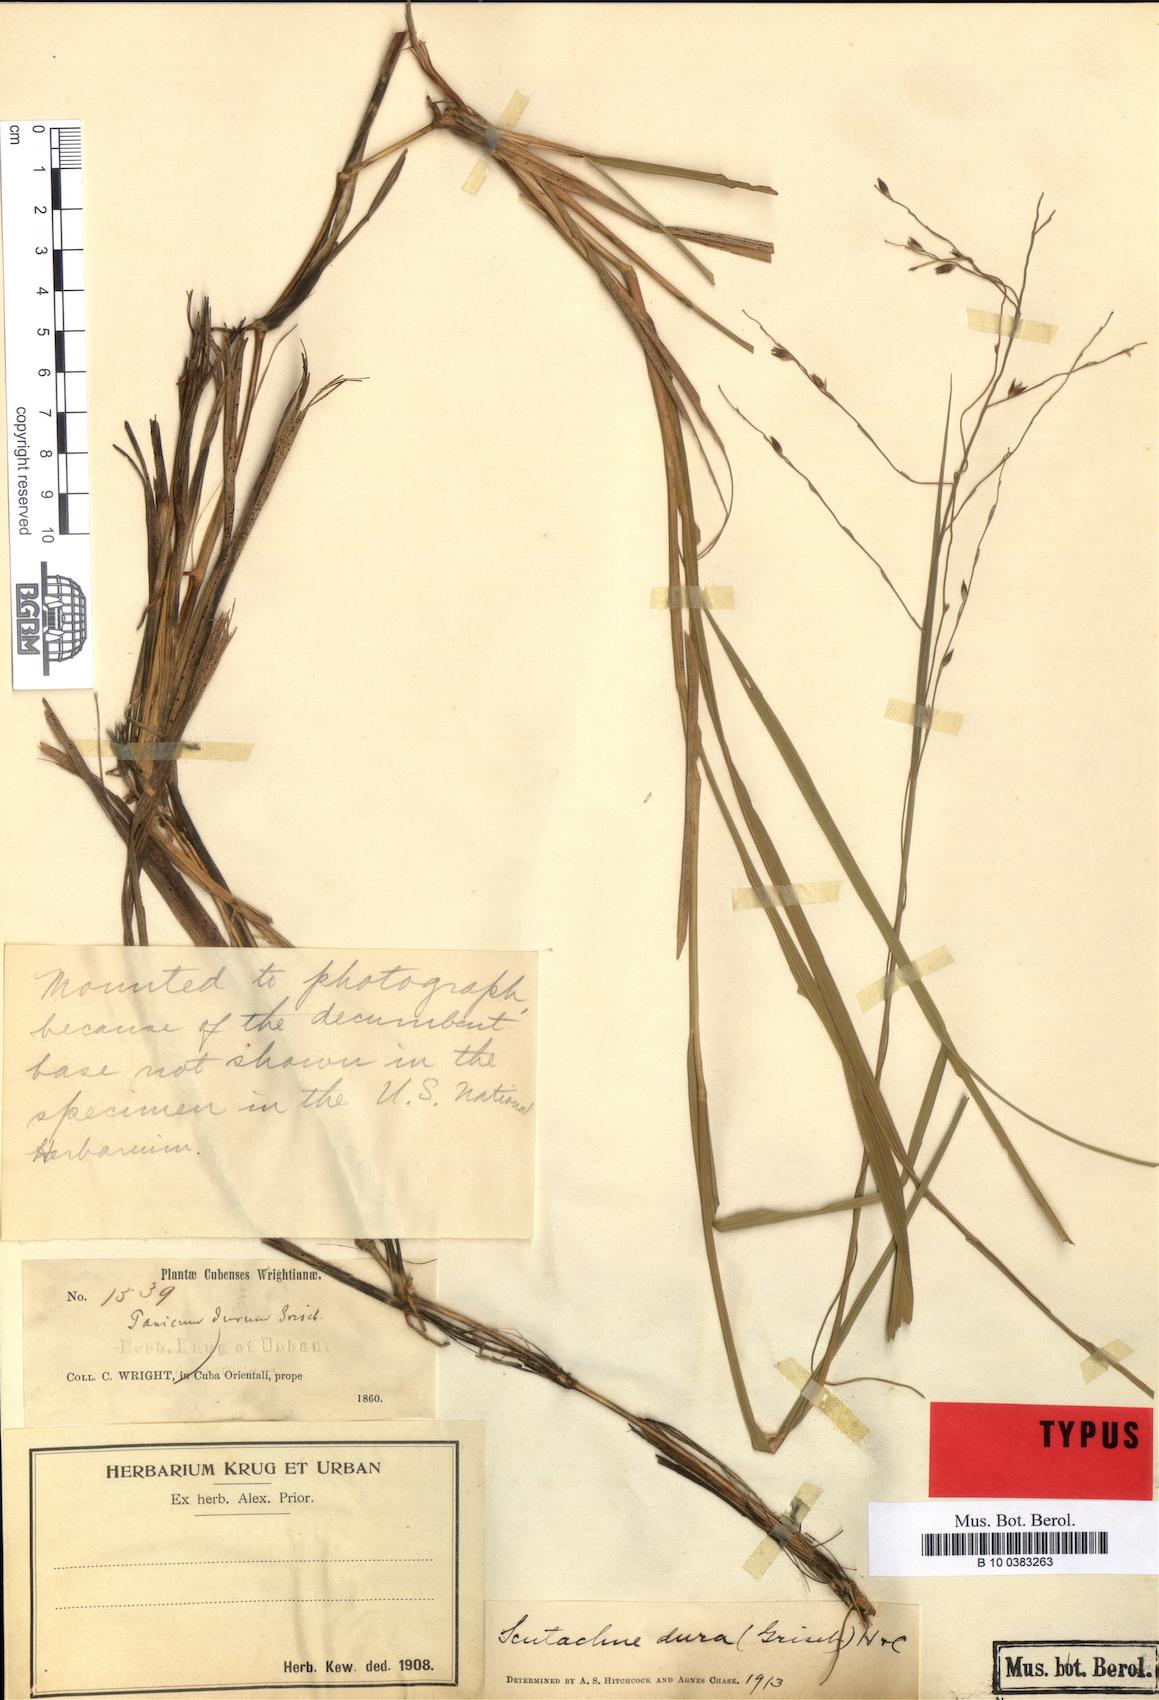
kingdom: Plantae
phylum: Tracheophyta
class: Liliopsida
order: Poales
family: Poaceae
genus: Scutachne
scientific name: Scutachne dura
